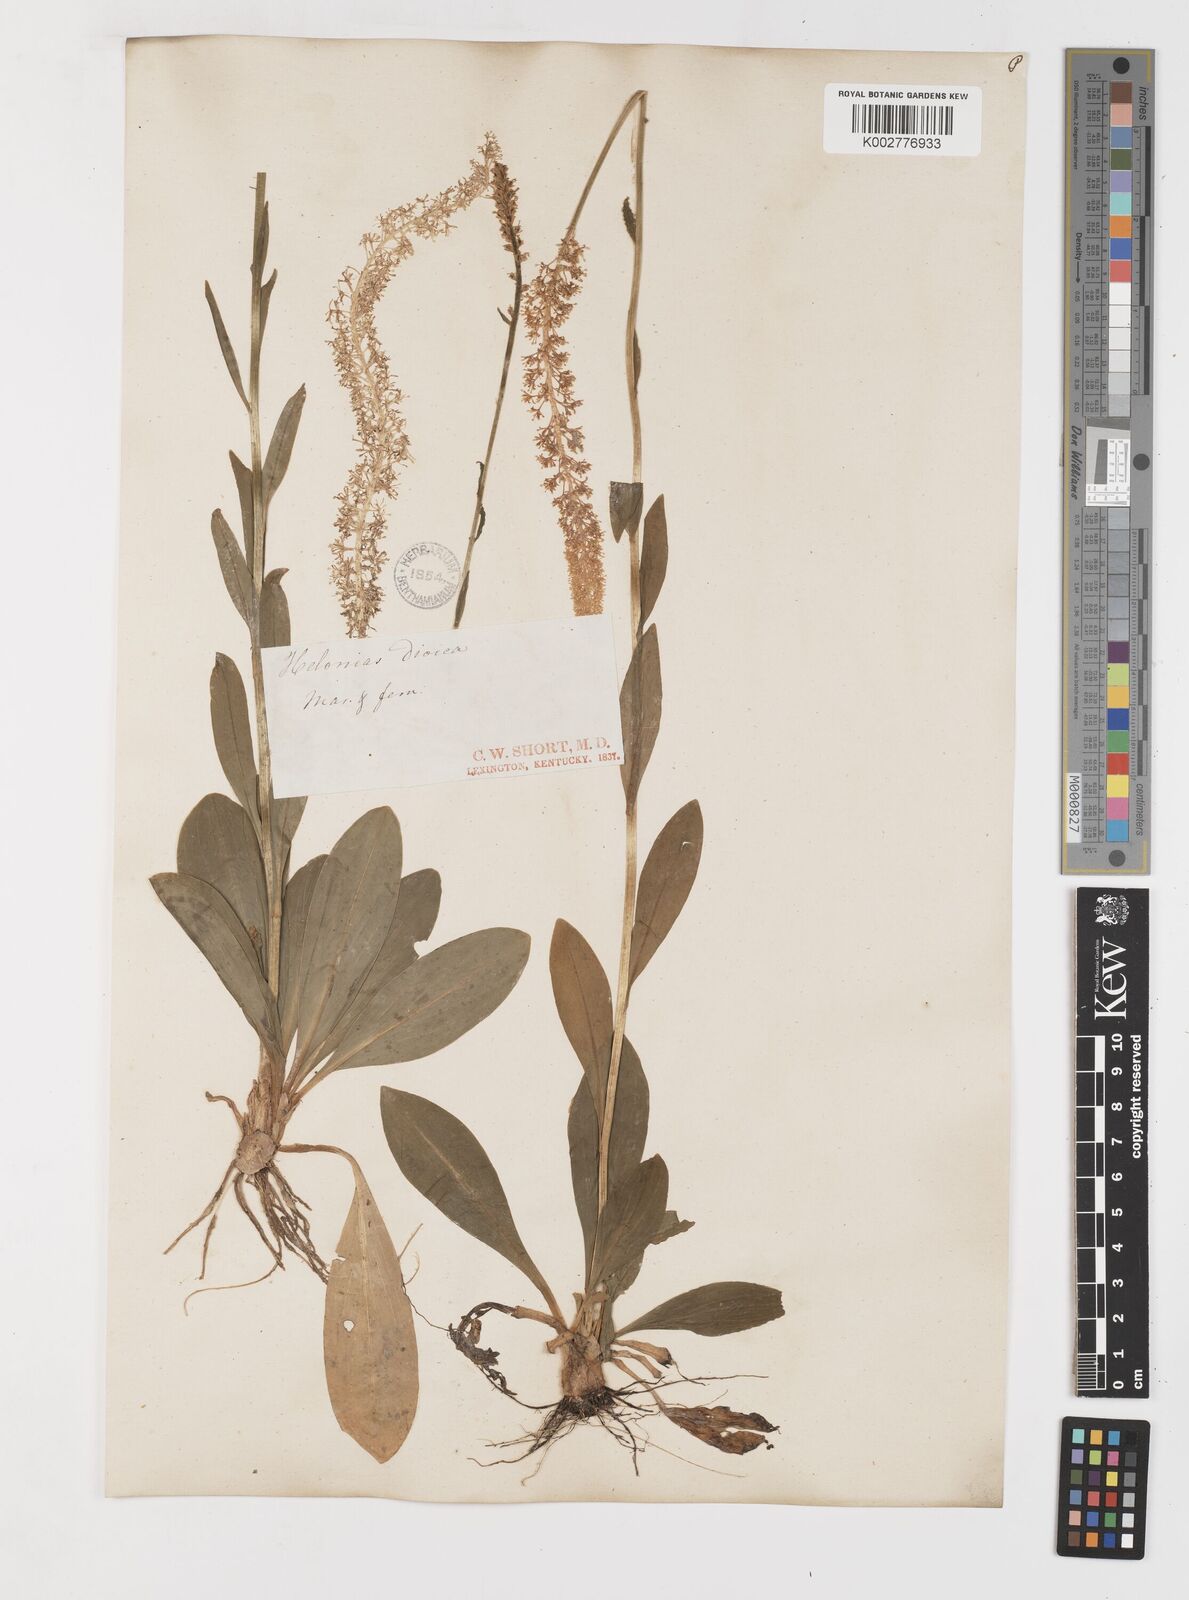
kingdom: Plantae
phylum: Tracheophyta
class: Liliopsida
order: Liliales
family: Melanthiaceae
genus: Chamaelirium
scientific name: Chamaelirium luteum
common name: Fairy-wand
